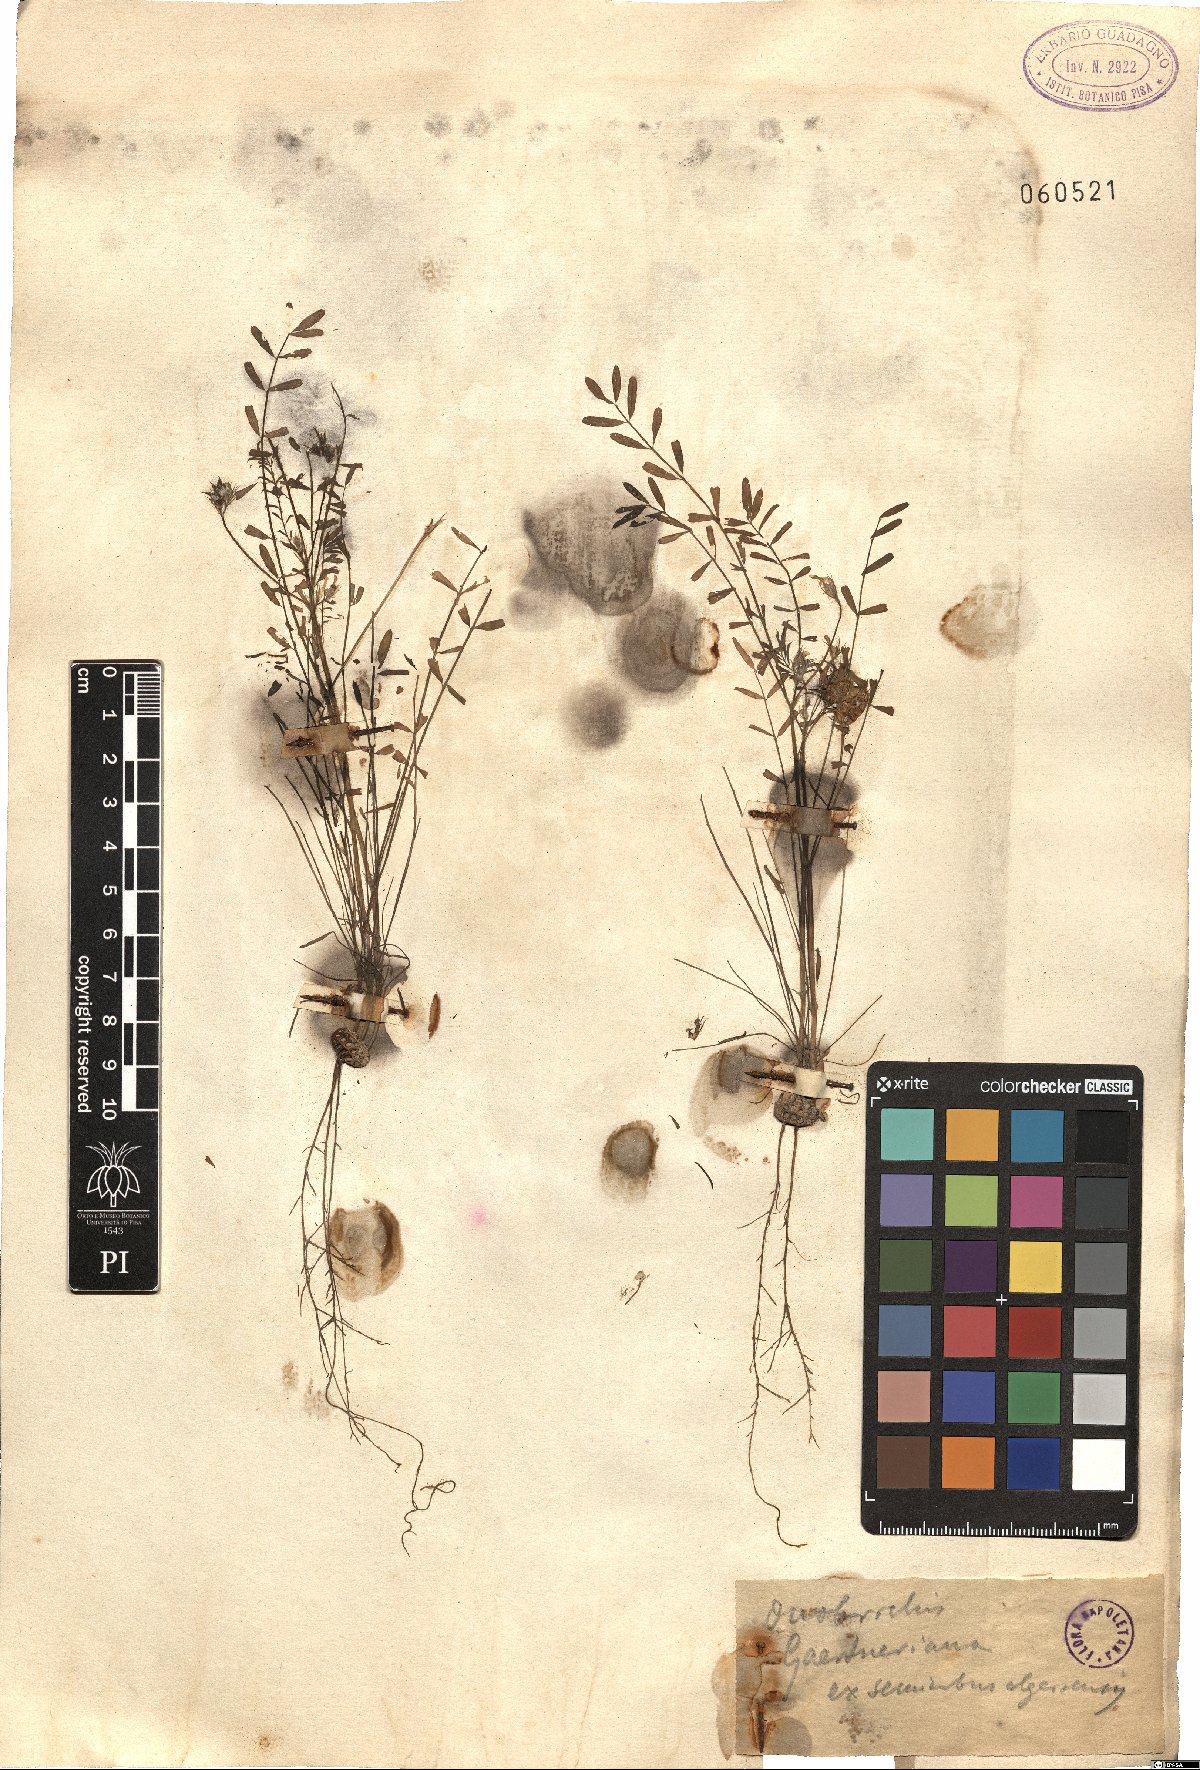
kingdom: Plantae
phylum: Tracheophyta
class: Magnoliopsida
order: Fabales
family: Fabaceae
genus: Onobrychis
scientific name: Onobrychis squarrosa
